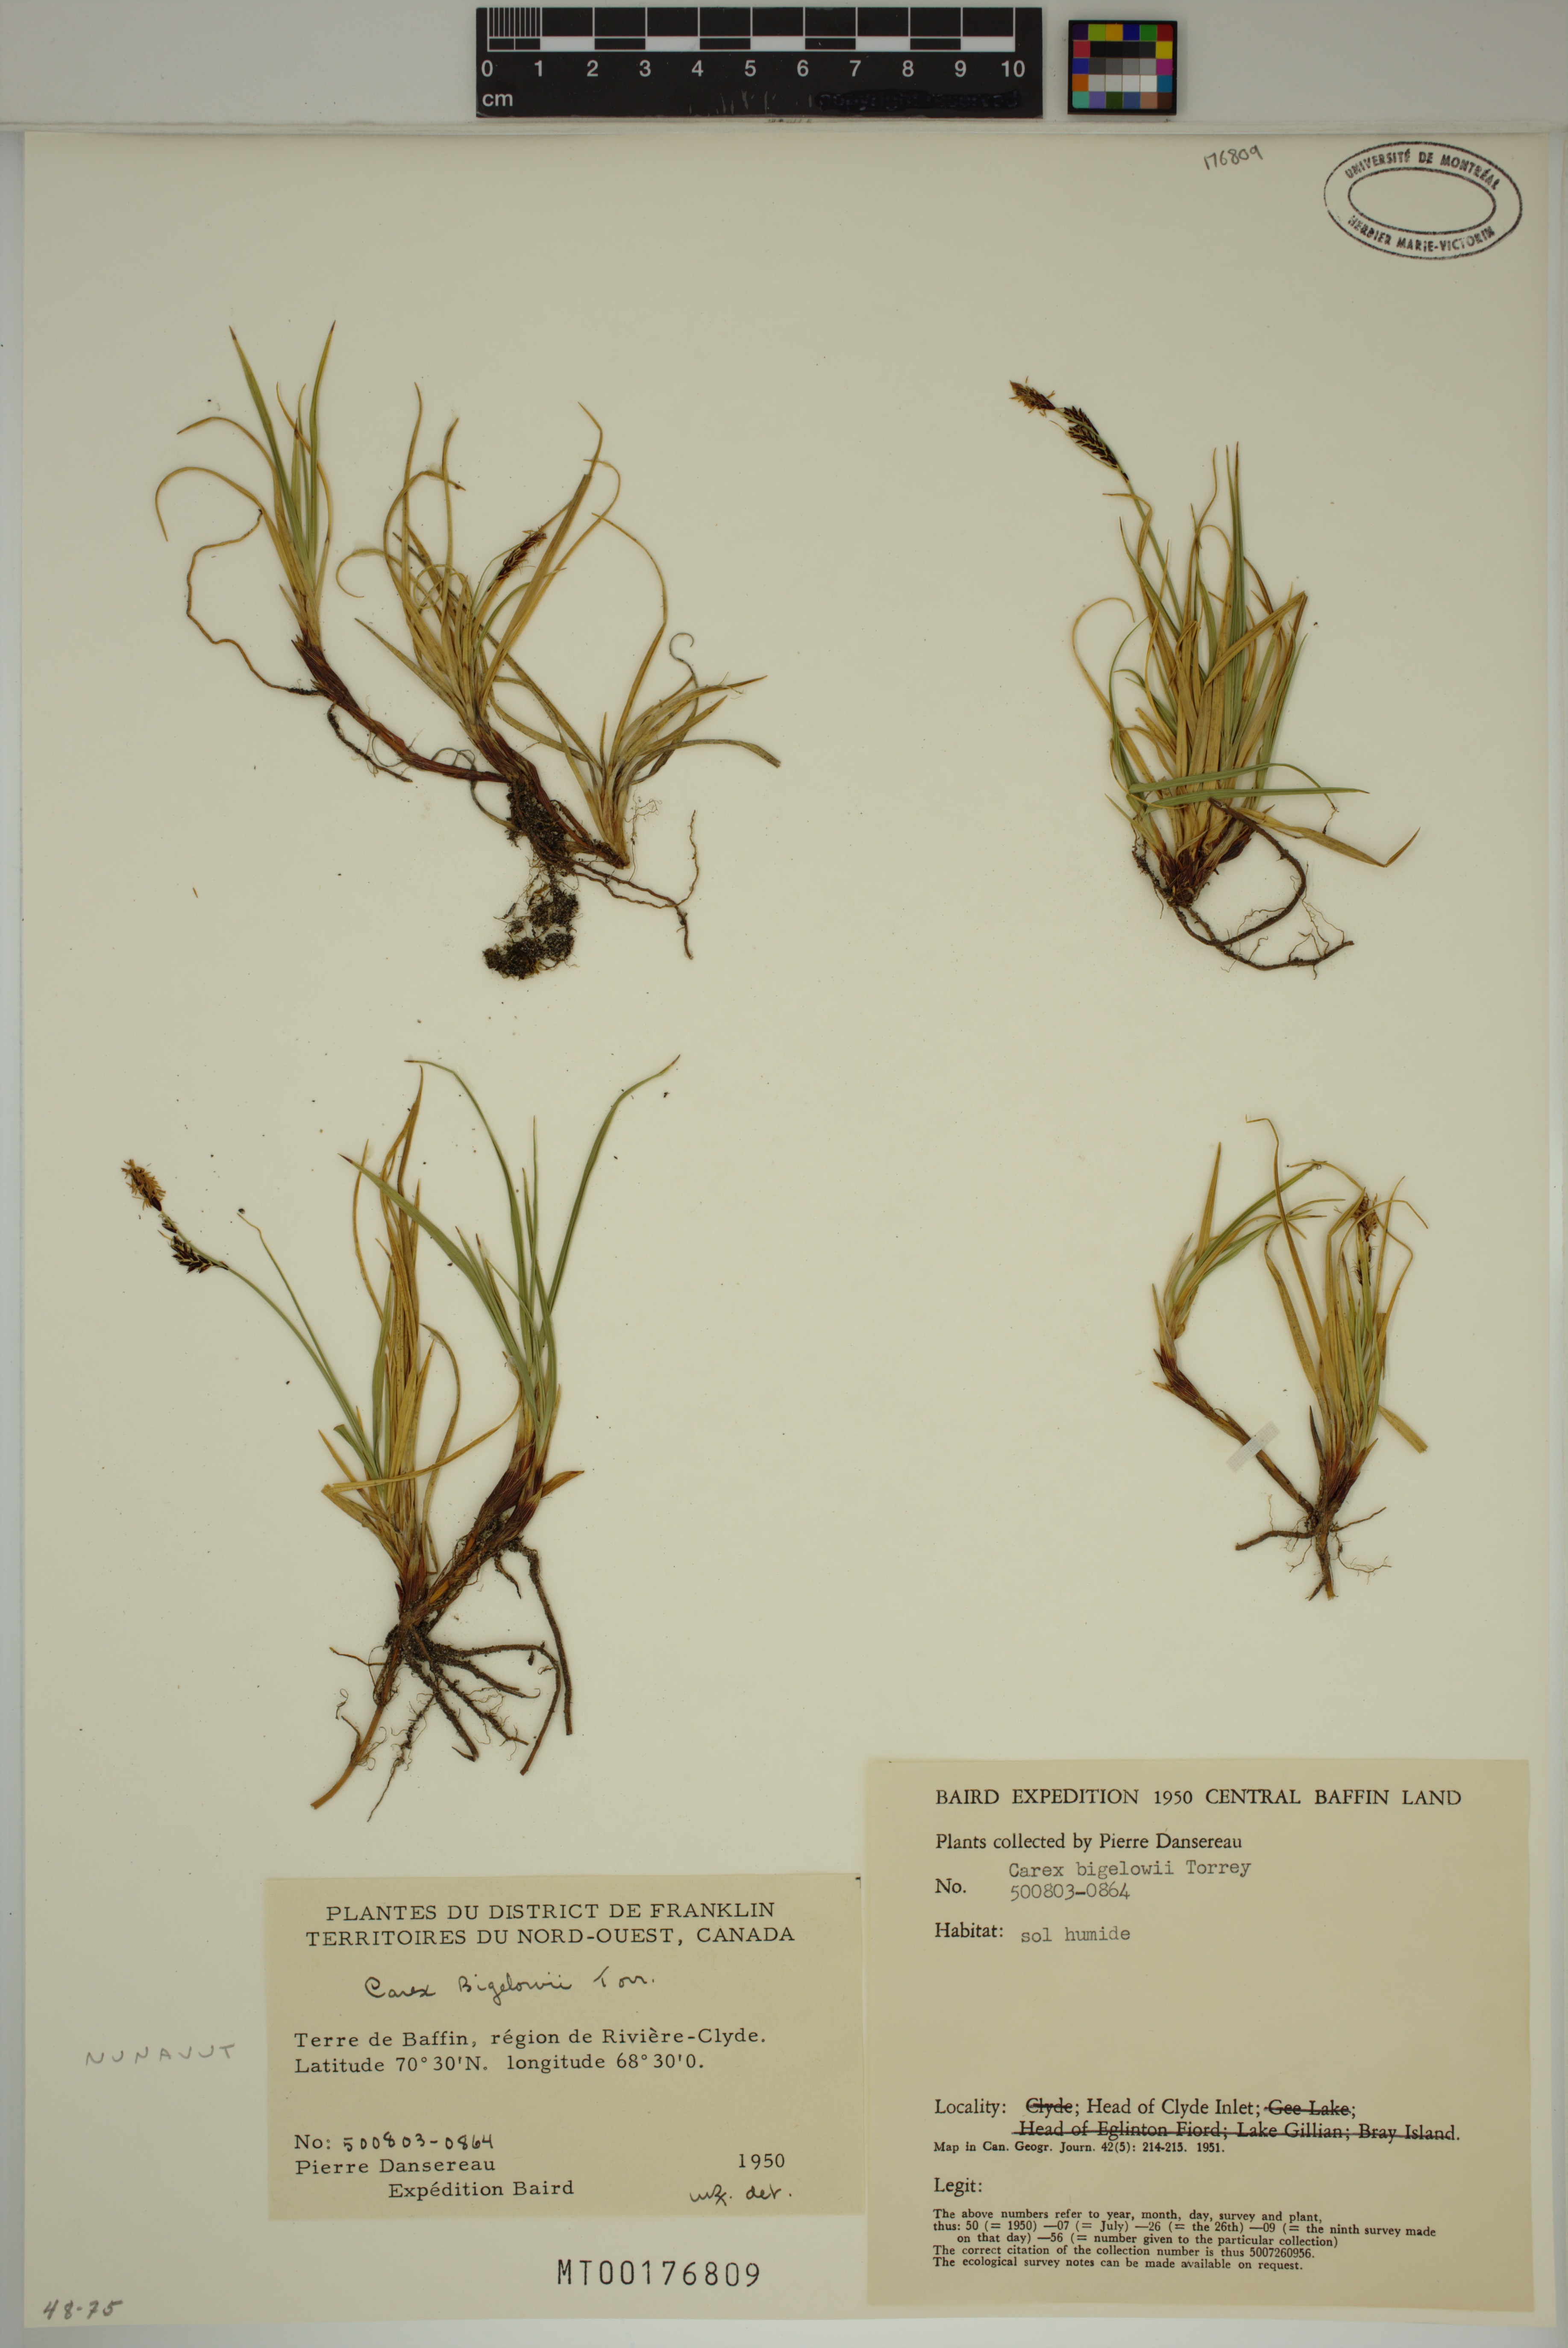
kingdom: Plantae
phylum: Tracheophyta
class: Liliopsida
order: Poales
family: Cyperaceae
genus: Carex
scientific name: Carex bigelowii
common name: Stiff sedge
